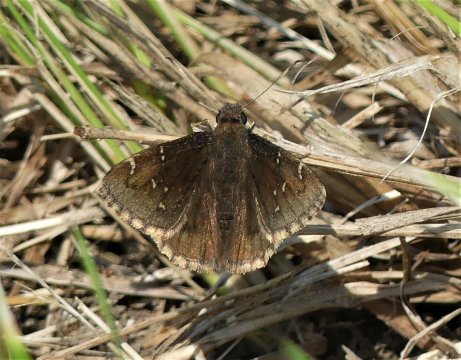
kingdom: Animalia
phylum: Arthropoda
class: Insecta
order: Lepidoptera
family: Hesperiidae
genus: Autochton
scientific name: Autochton
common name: Northern Cloudywing
